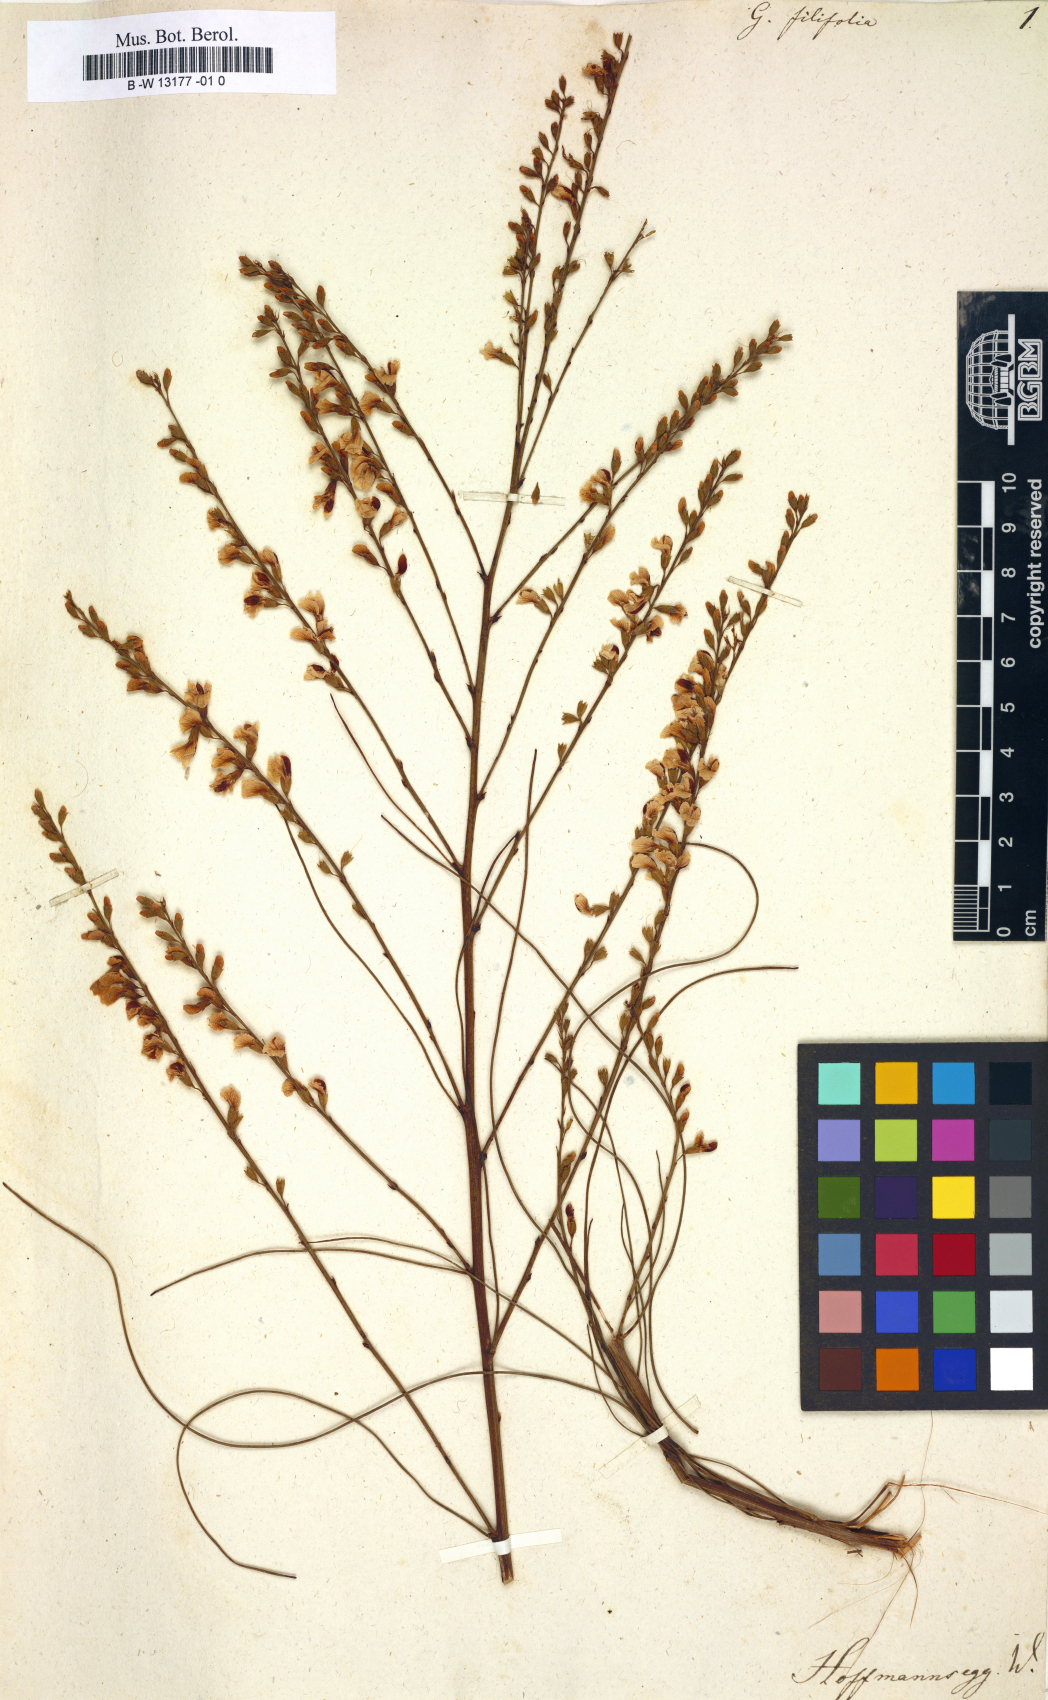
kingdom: Plantae
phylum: Tracheophyta
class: Magnoliopsida
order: Fabales
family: Fabaceae
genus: Viminaria
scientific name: Viminaria juncea
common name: Golden spray
